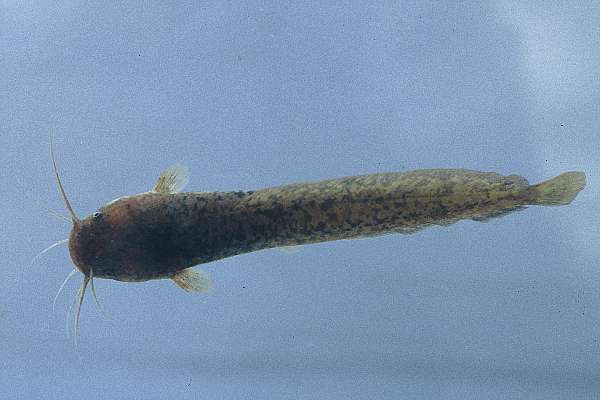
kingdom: Animalia
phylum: Chordata
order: Siluriformes
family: Clariidae
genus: Clarias
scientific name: Clarias liocephalus
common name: Smooth-head catfish
